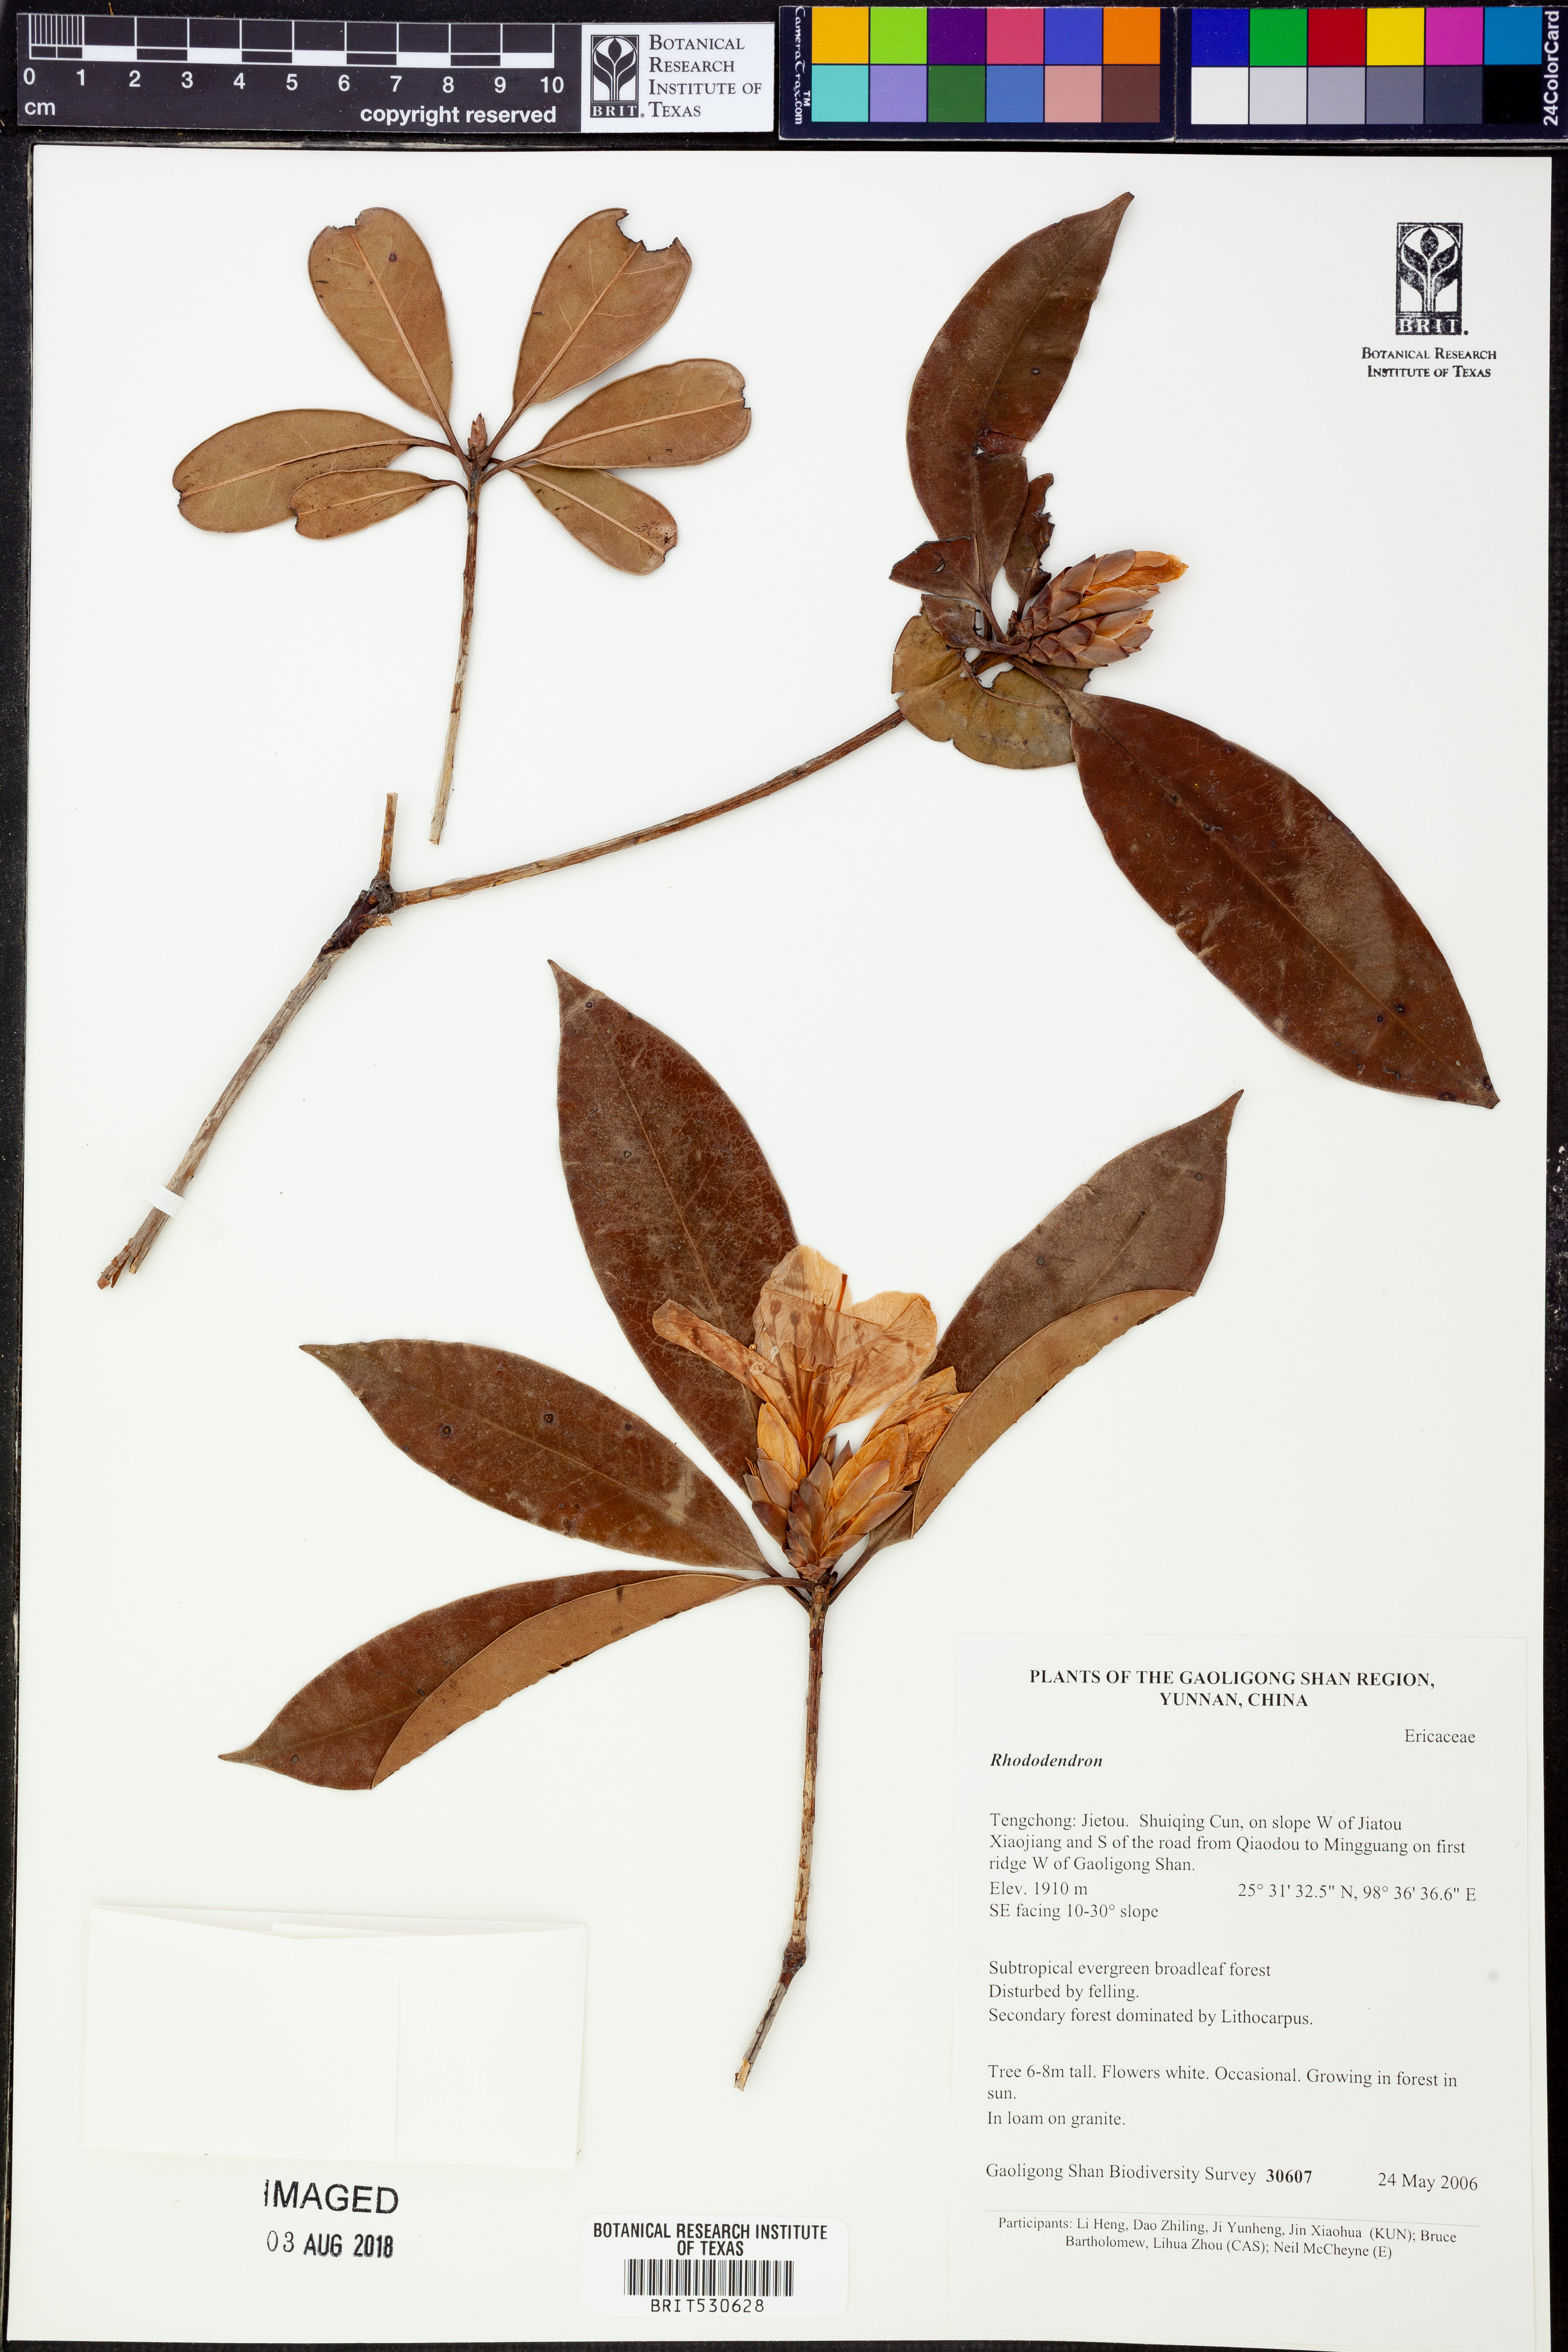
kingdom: Plantae
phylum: Tracheophyta
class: Magnoliopsida
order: Ericales
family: Ericaceae
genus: Rhododendron
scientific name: Rhododendron
